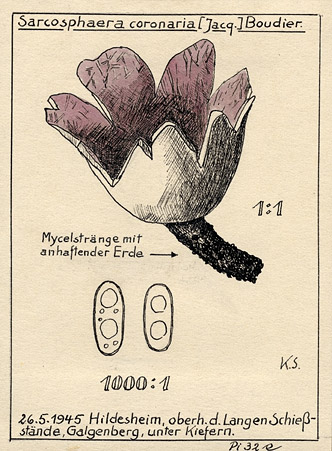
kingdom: Fungi
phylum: Ascomycota
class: Pezizomycetes
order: Pezizales
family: Pezizaceae
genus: Sarcosphaera
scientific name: Sarcosphaera coronaria
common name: Violet crowncup
